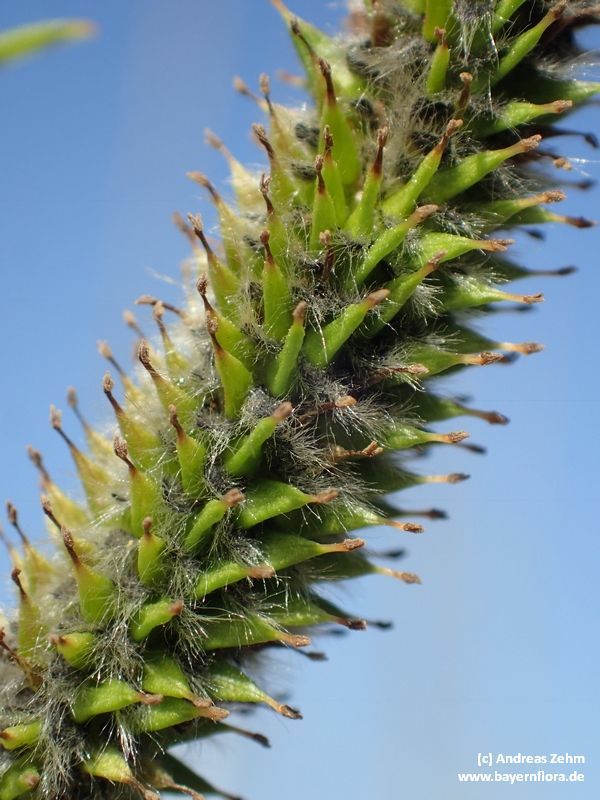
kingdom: Plantae
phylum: Tracheophyta
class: Magnoliopsida
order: Malpighiales
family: Salicaceae
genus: Salix
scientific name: Salix daphnoides
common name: European violet-willow
